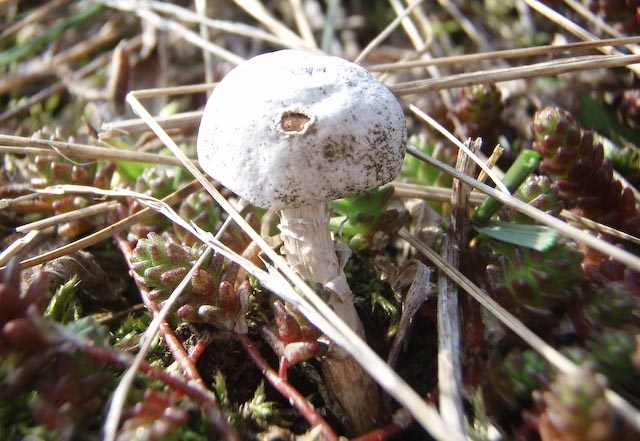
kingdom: Fungi
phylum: Basidiomycota
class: Agaricomycetes
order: Agaricales
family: Agaricaceae
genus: Tulostoma
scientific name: Tulostoma fimbriatum
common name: frynset stilkbovist
